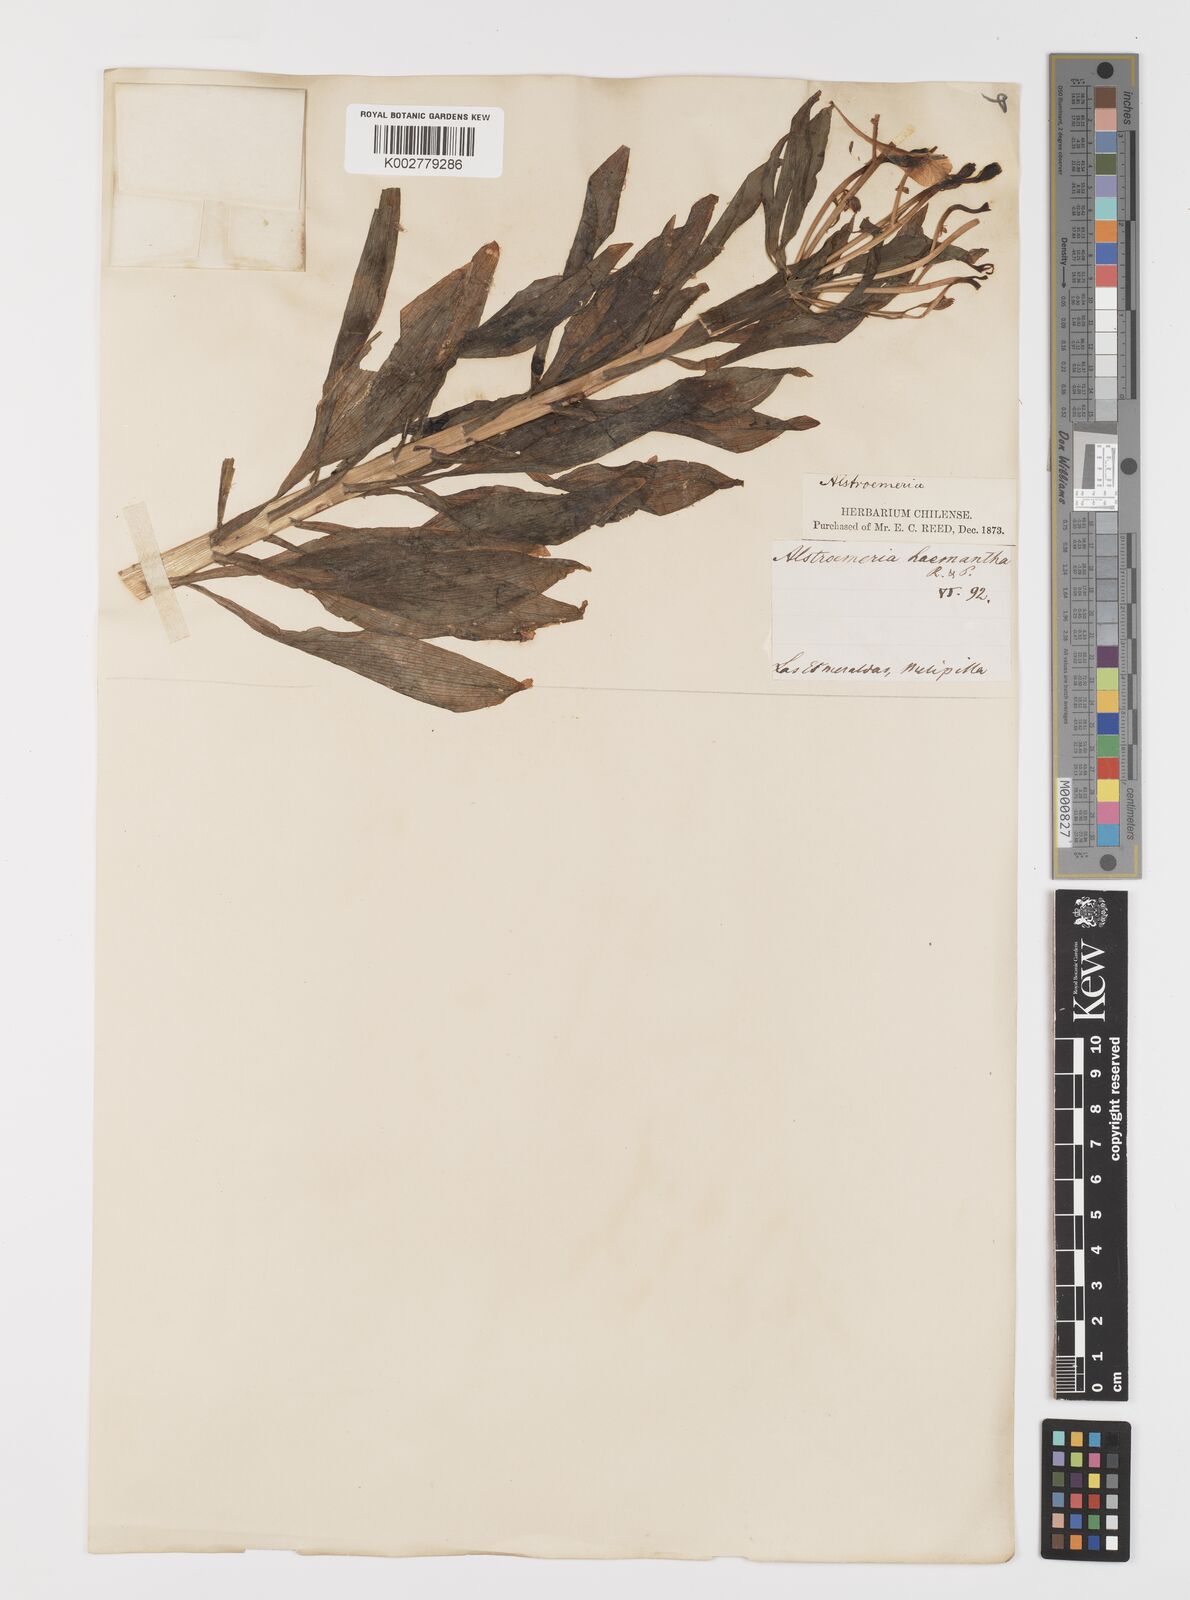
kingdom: Plantae
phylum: Tracheophyta
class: Liliopsida
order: Liliales
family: Alstroemeriaceae
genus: Alstroemeria
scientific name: Alstroemeria ligtu
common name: St. martin's-flower
